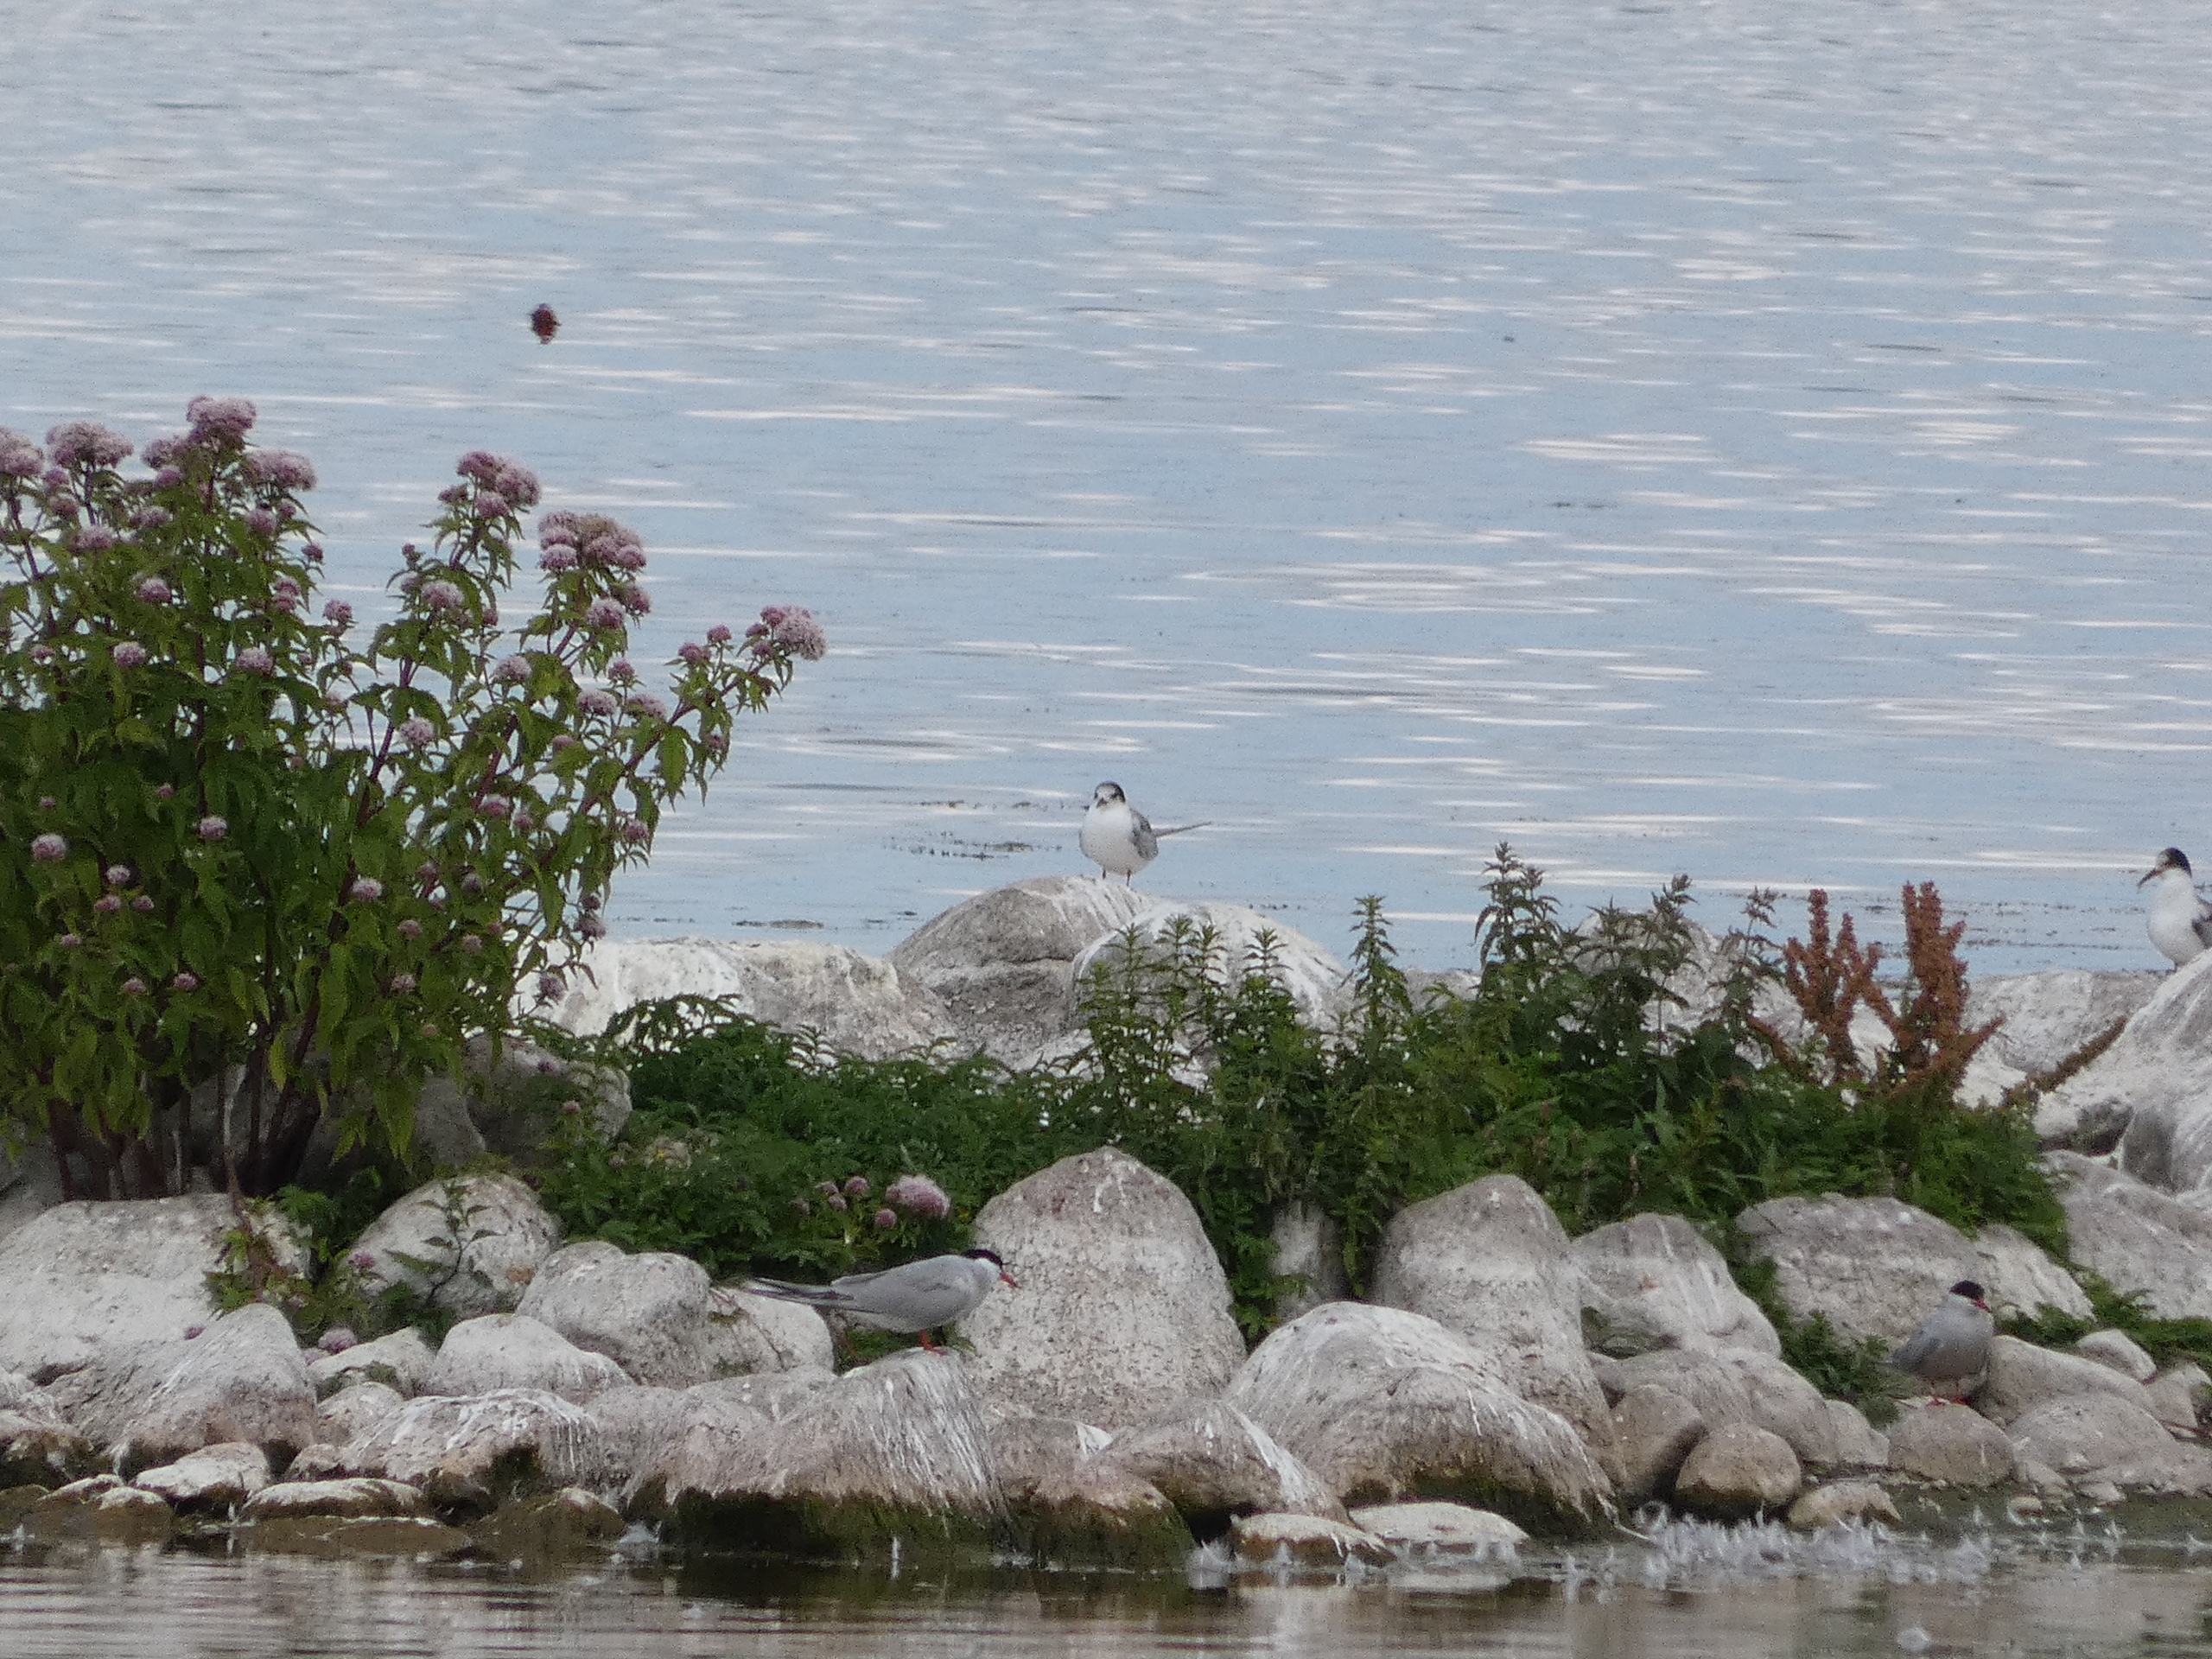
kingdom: Animalia
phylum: Arthropoda
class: Insecta
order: Lepidoptera
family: Nymphalidae
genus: Aglais
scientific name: Aglais io
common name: Dagpåfugleøje
